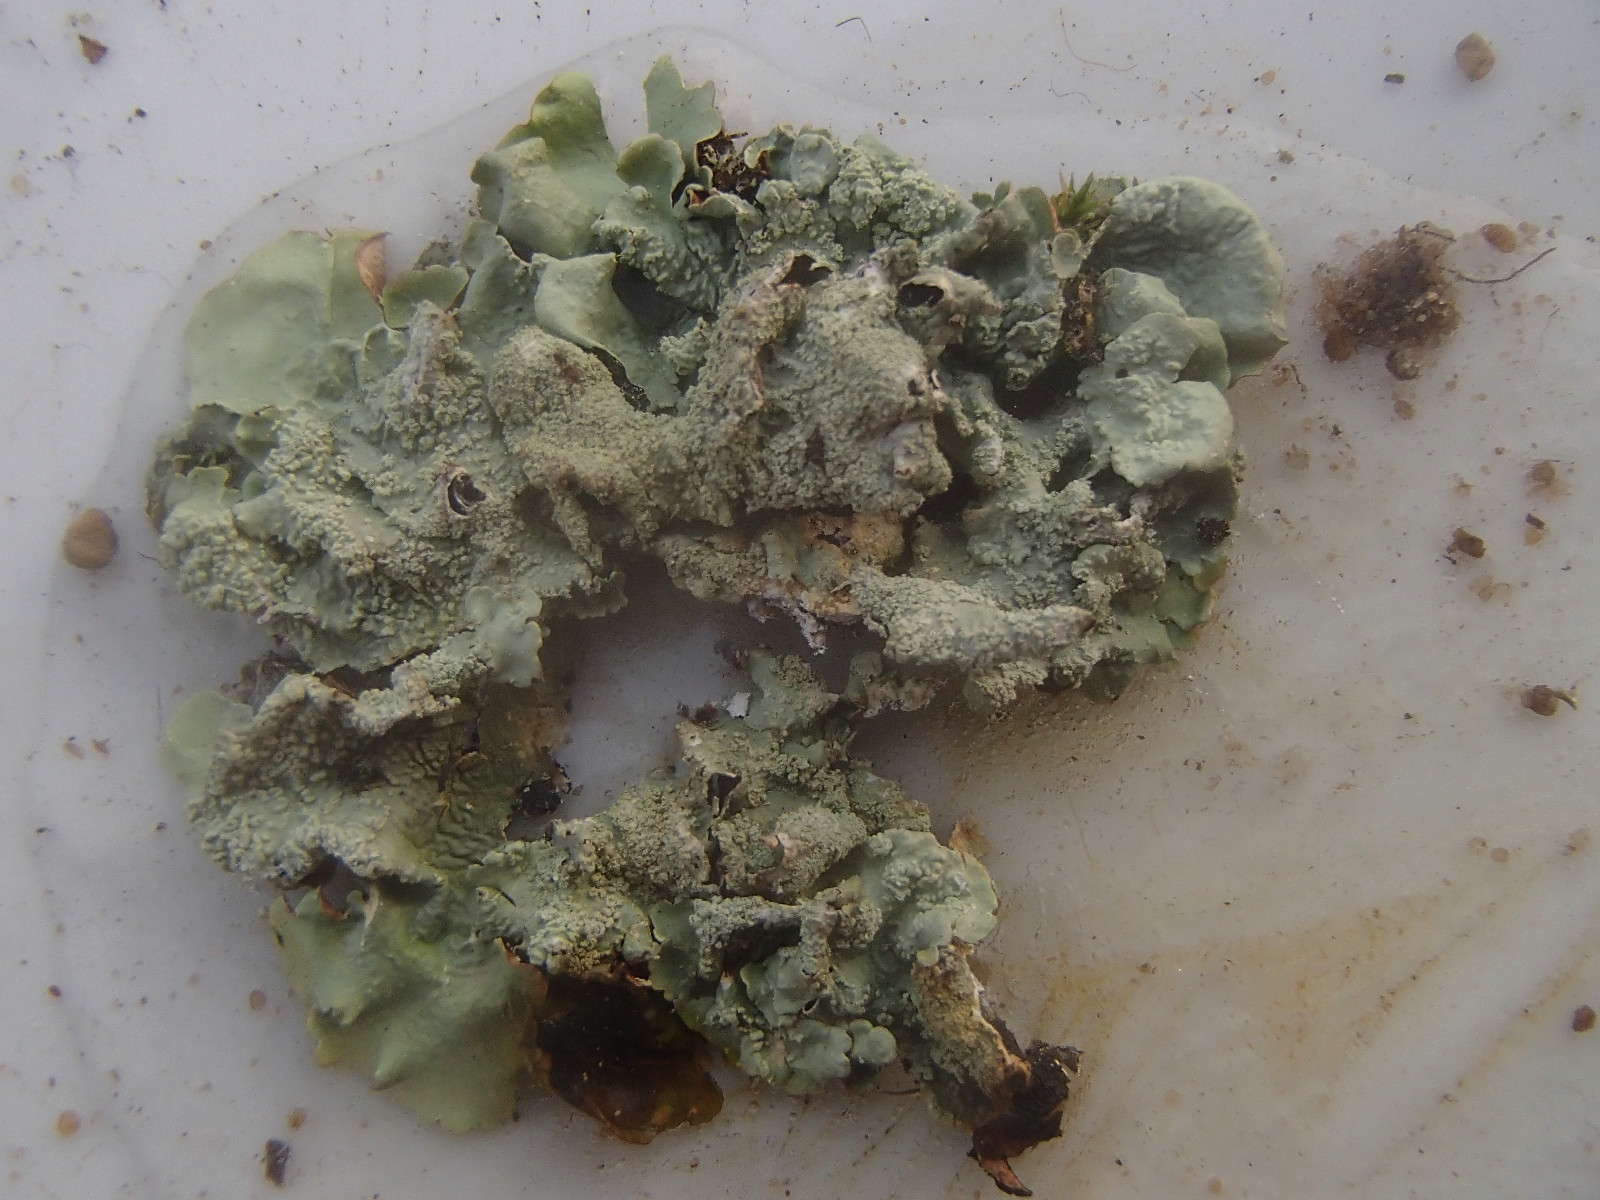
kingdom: Fungi
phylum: Ascomycota
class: Lecanoromycetes
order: Lecanorales
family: Parmeliaceae
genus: Flavoparmelia
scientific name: Flavoparmelia caperata
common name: gulgrøn skållav
